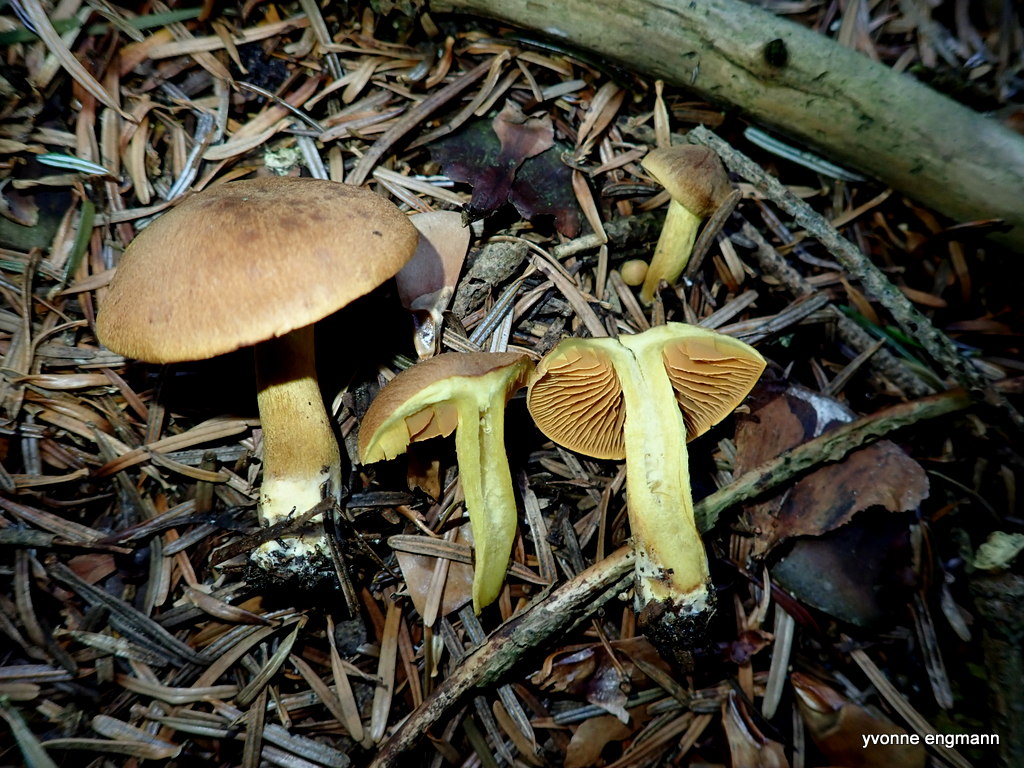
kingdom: Fungi
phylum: Basidiomycota
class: Agaricomycetes
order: Agaricales
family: Cortinariaceae
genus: Cortinarius
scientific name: Cortinarius malicorius
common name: grønkødet slørhat
